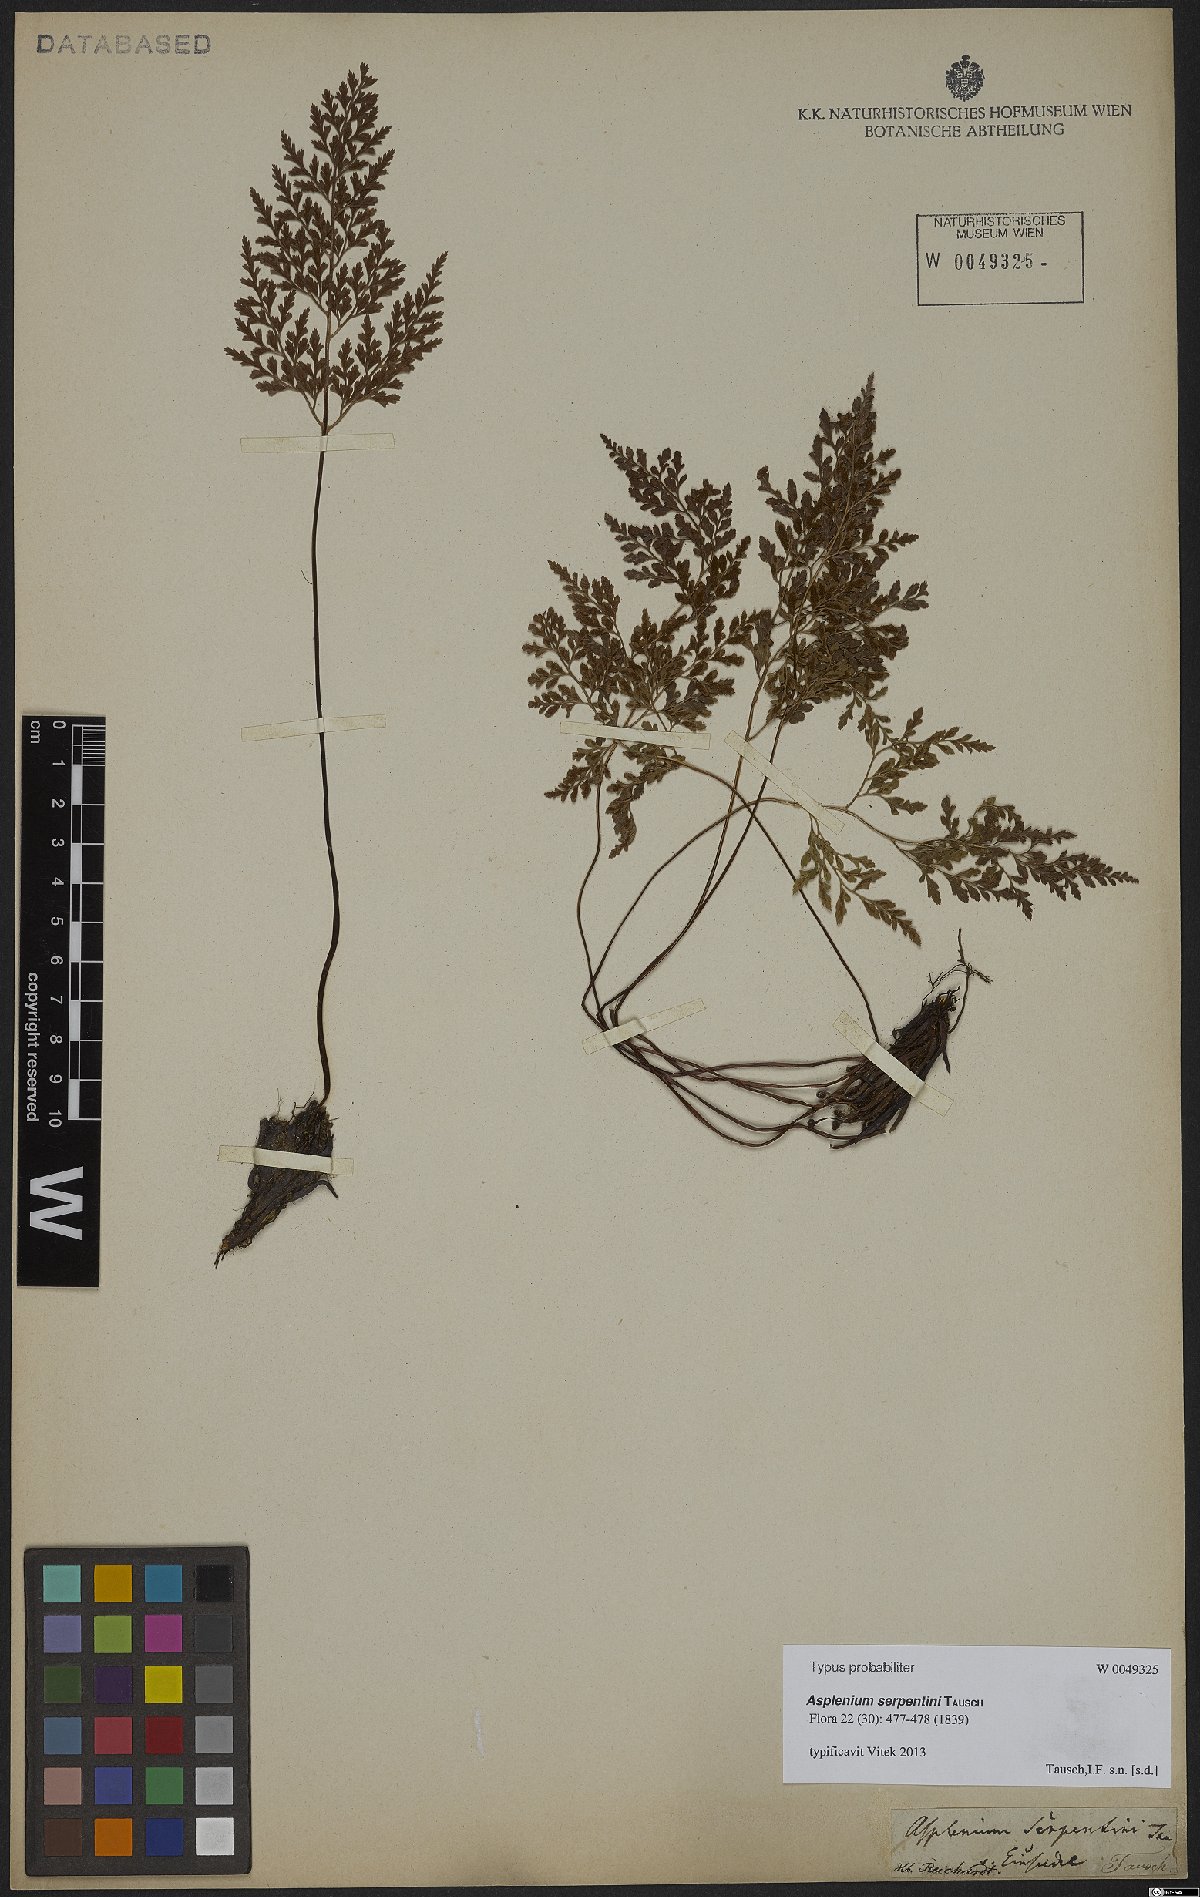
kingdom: Plantae
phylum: Tracheophyta
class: Polypodiopsida
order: Polypodiales
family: Aspleniaceae
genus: Asplenium
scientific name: Asplenium cuneifolium
